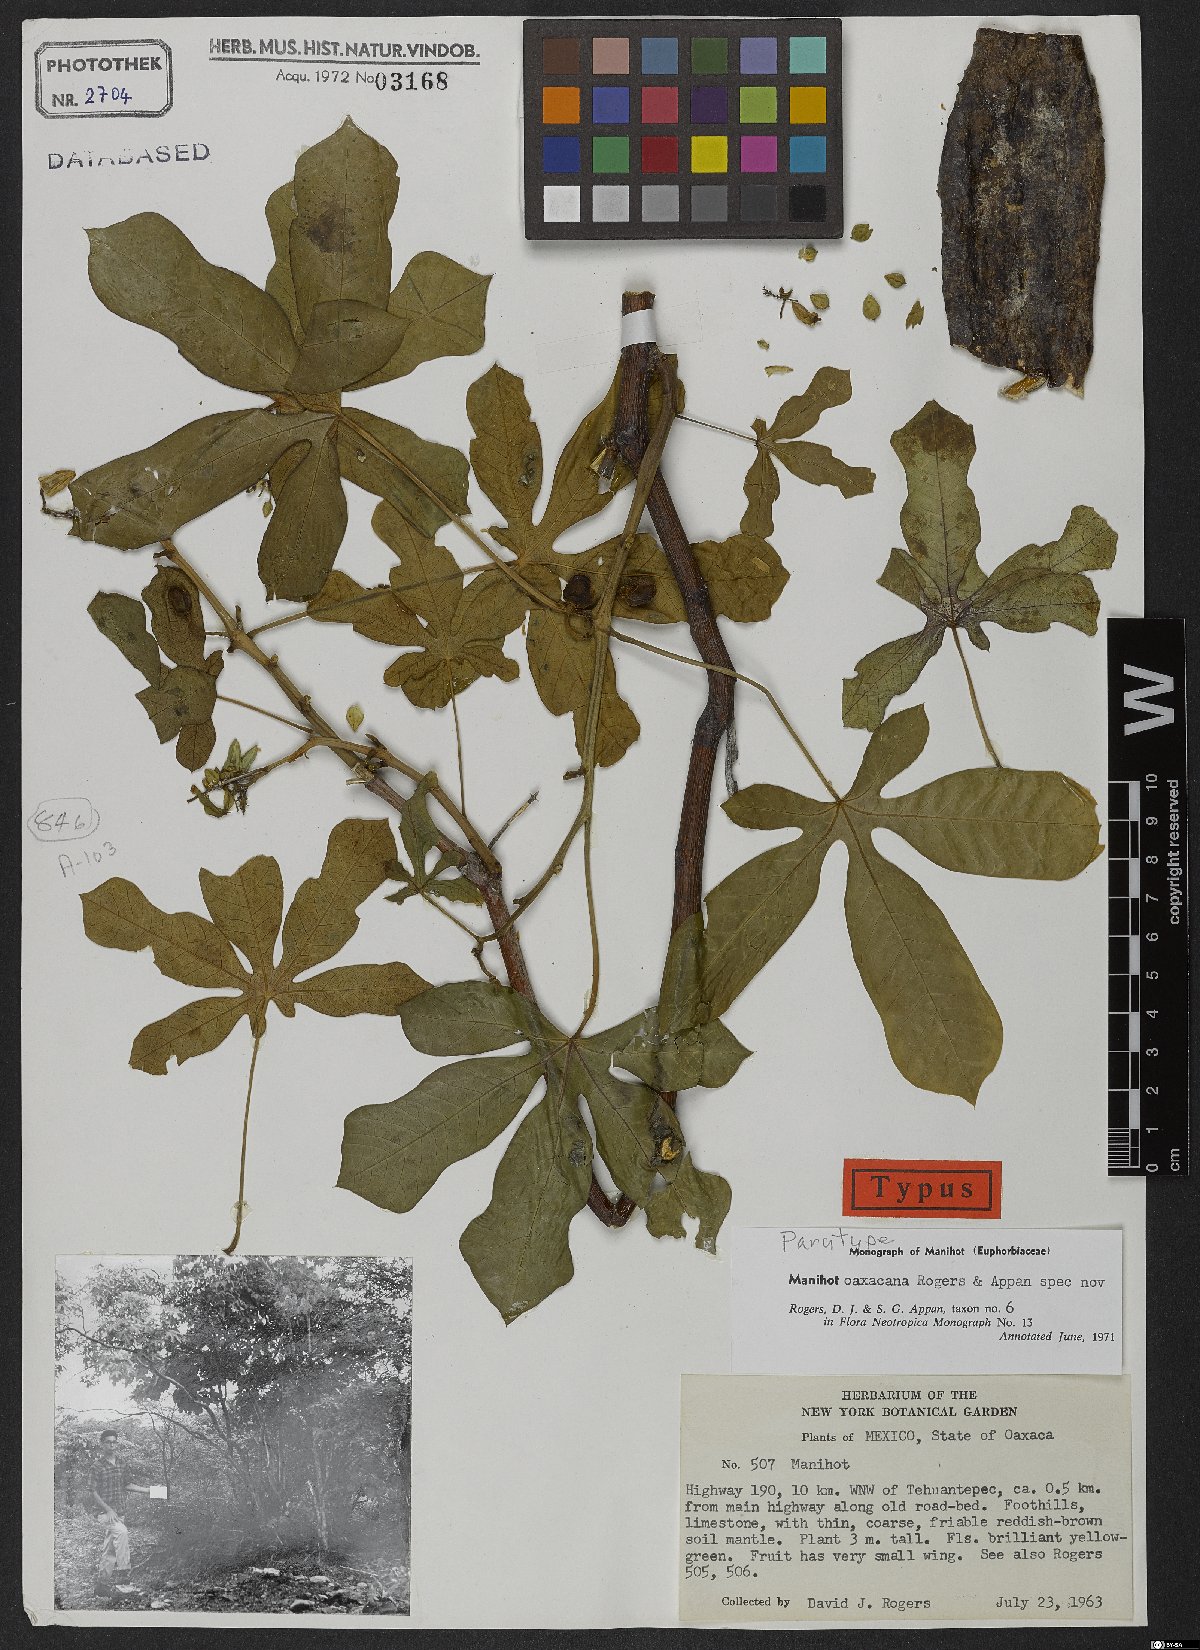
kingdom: Plantae
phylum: Tracheophyta
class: Magnoliopsida
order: Malpighiales
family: Euphorbiaceae
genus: Manihot
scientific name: Manihot oaxacana
